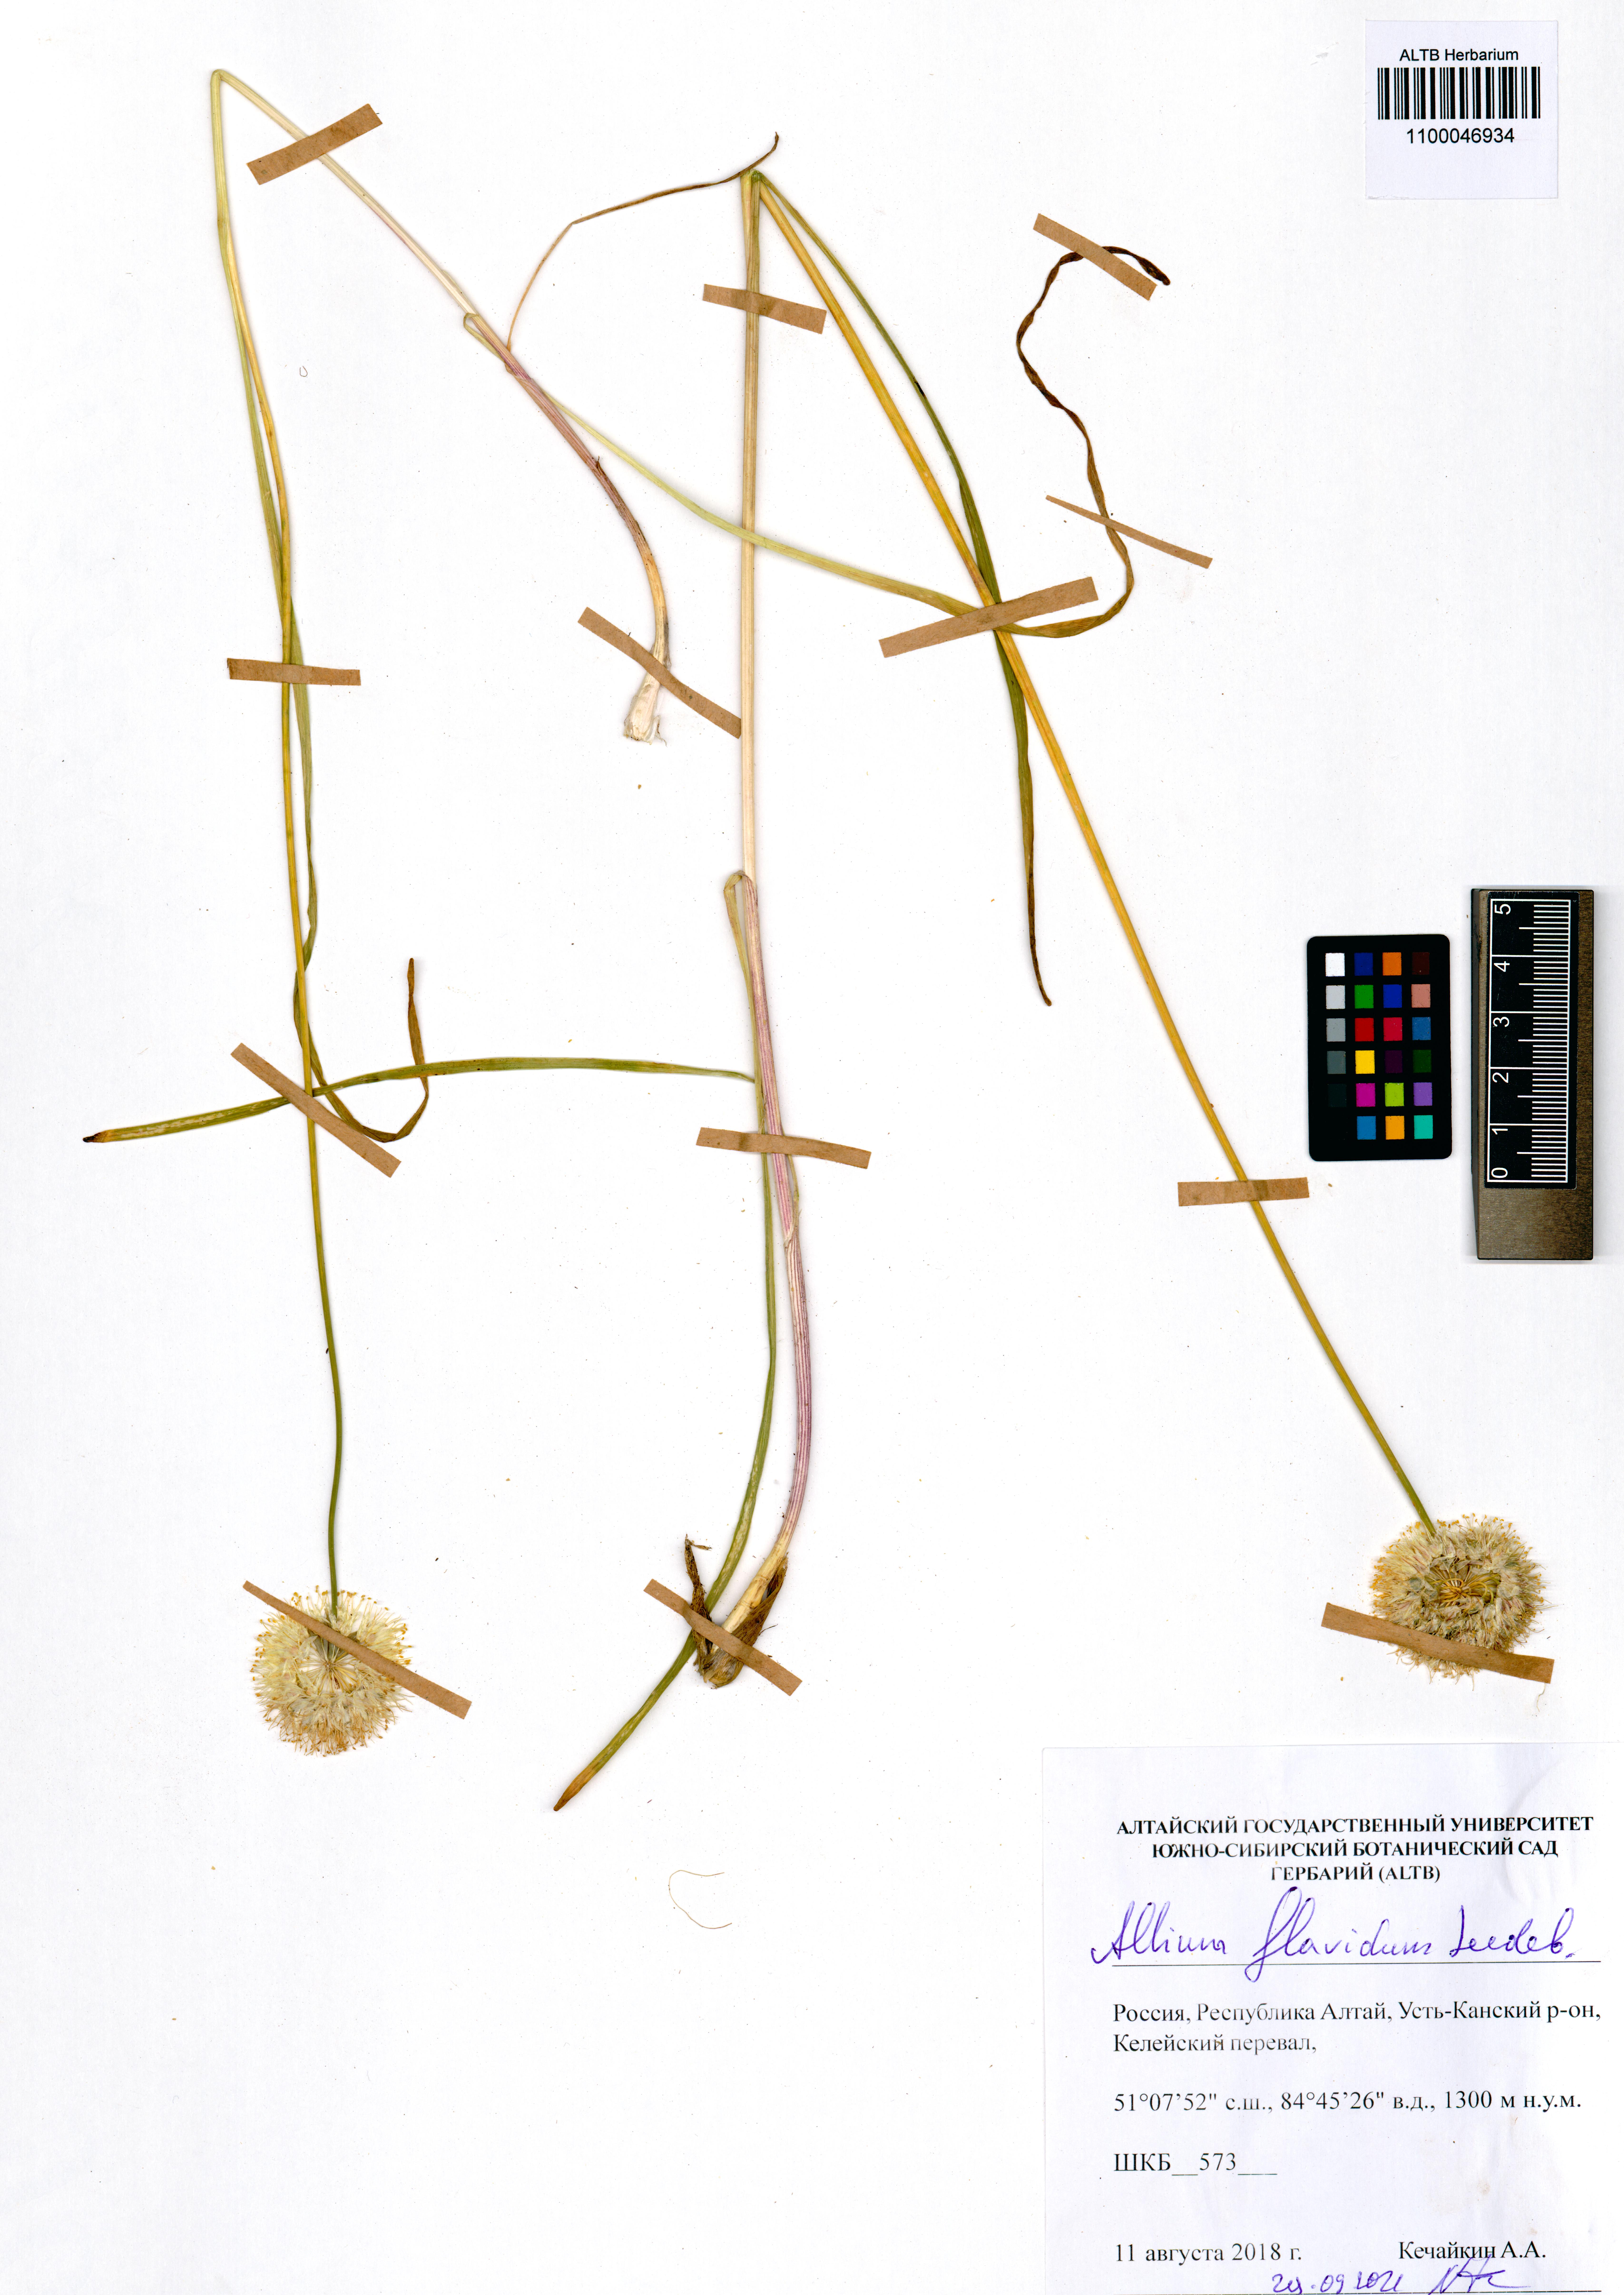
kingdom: Plantae
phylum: Tracheophyta
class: Liliopsida
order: Asparagales
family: Amaryllidaceae
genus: Allium
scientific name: Allium flavidum
